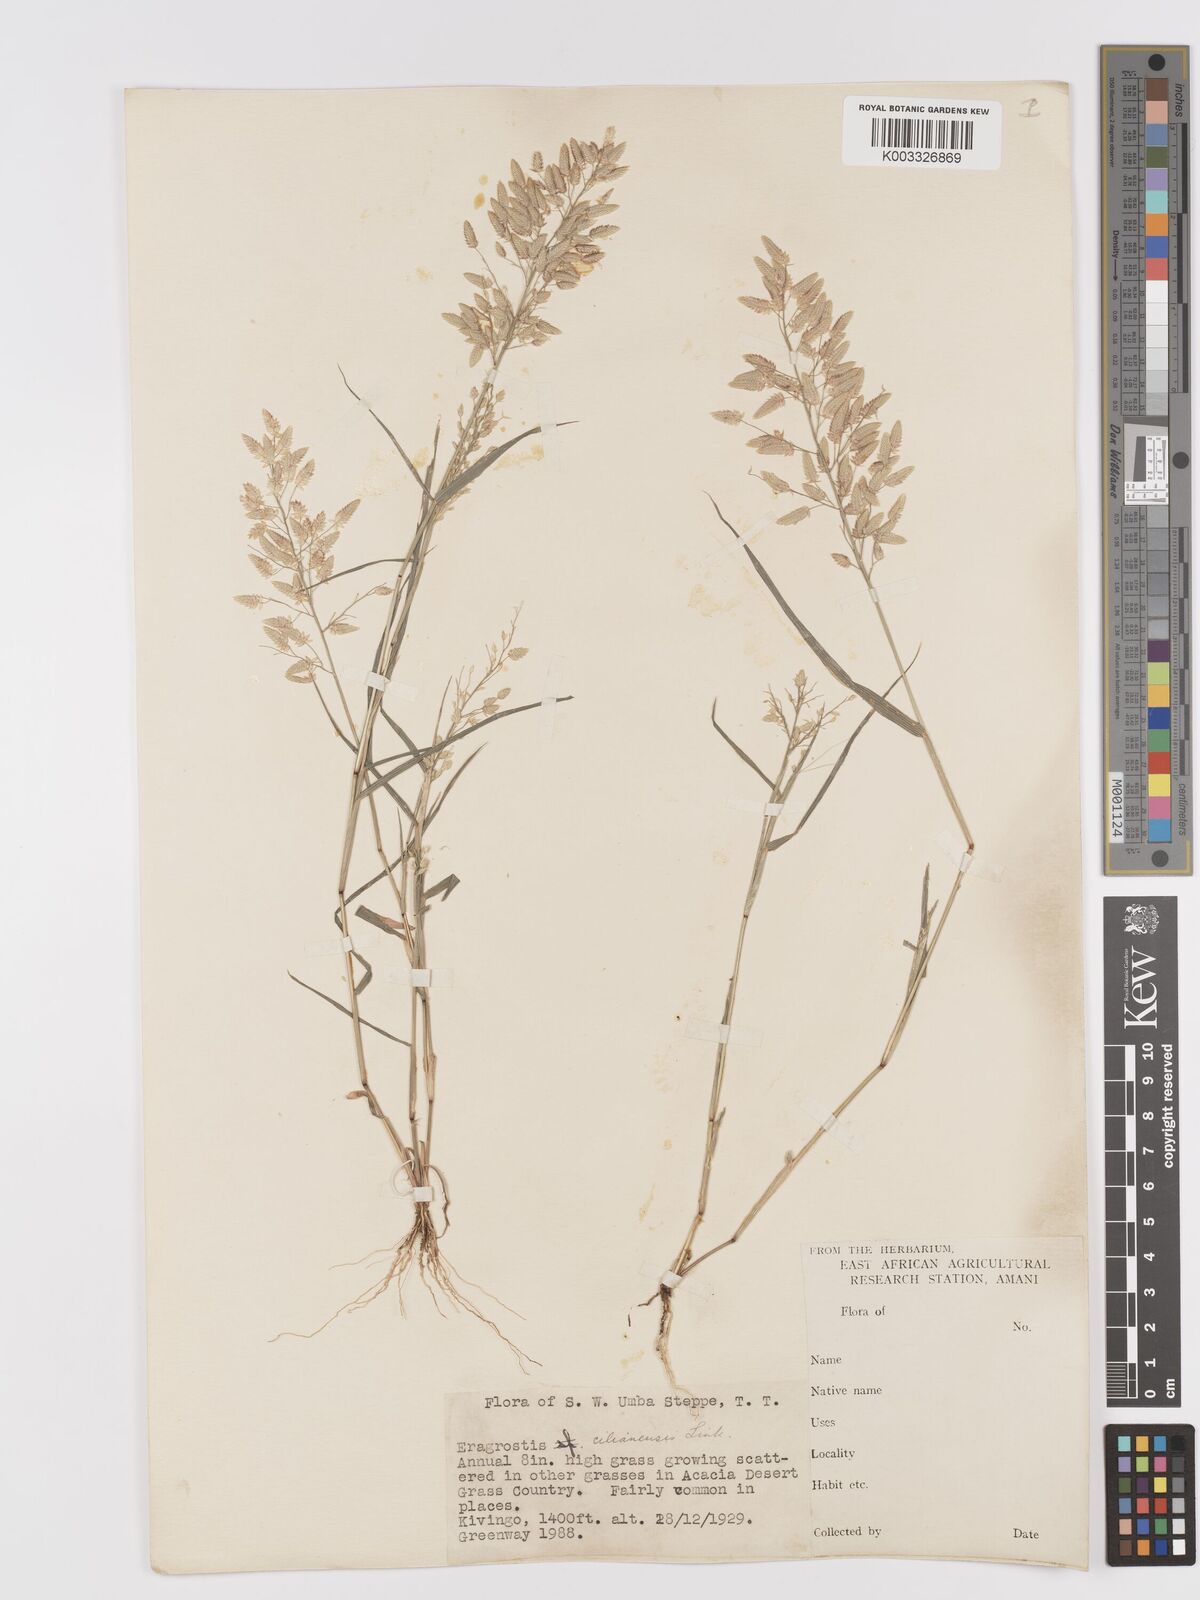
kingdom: Plantae
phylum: Tracheophyta
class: Liliopsida
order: Poales
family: Poaceae
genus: Eragrostis
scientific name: Eragrostis cilianensis
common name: Stinkgrass
